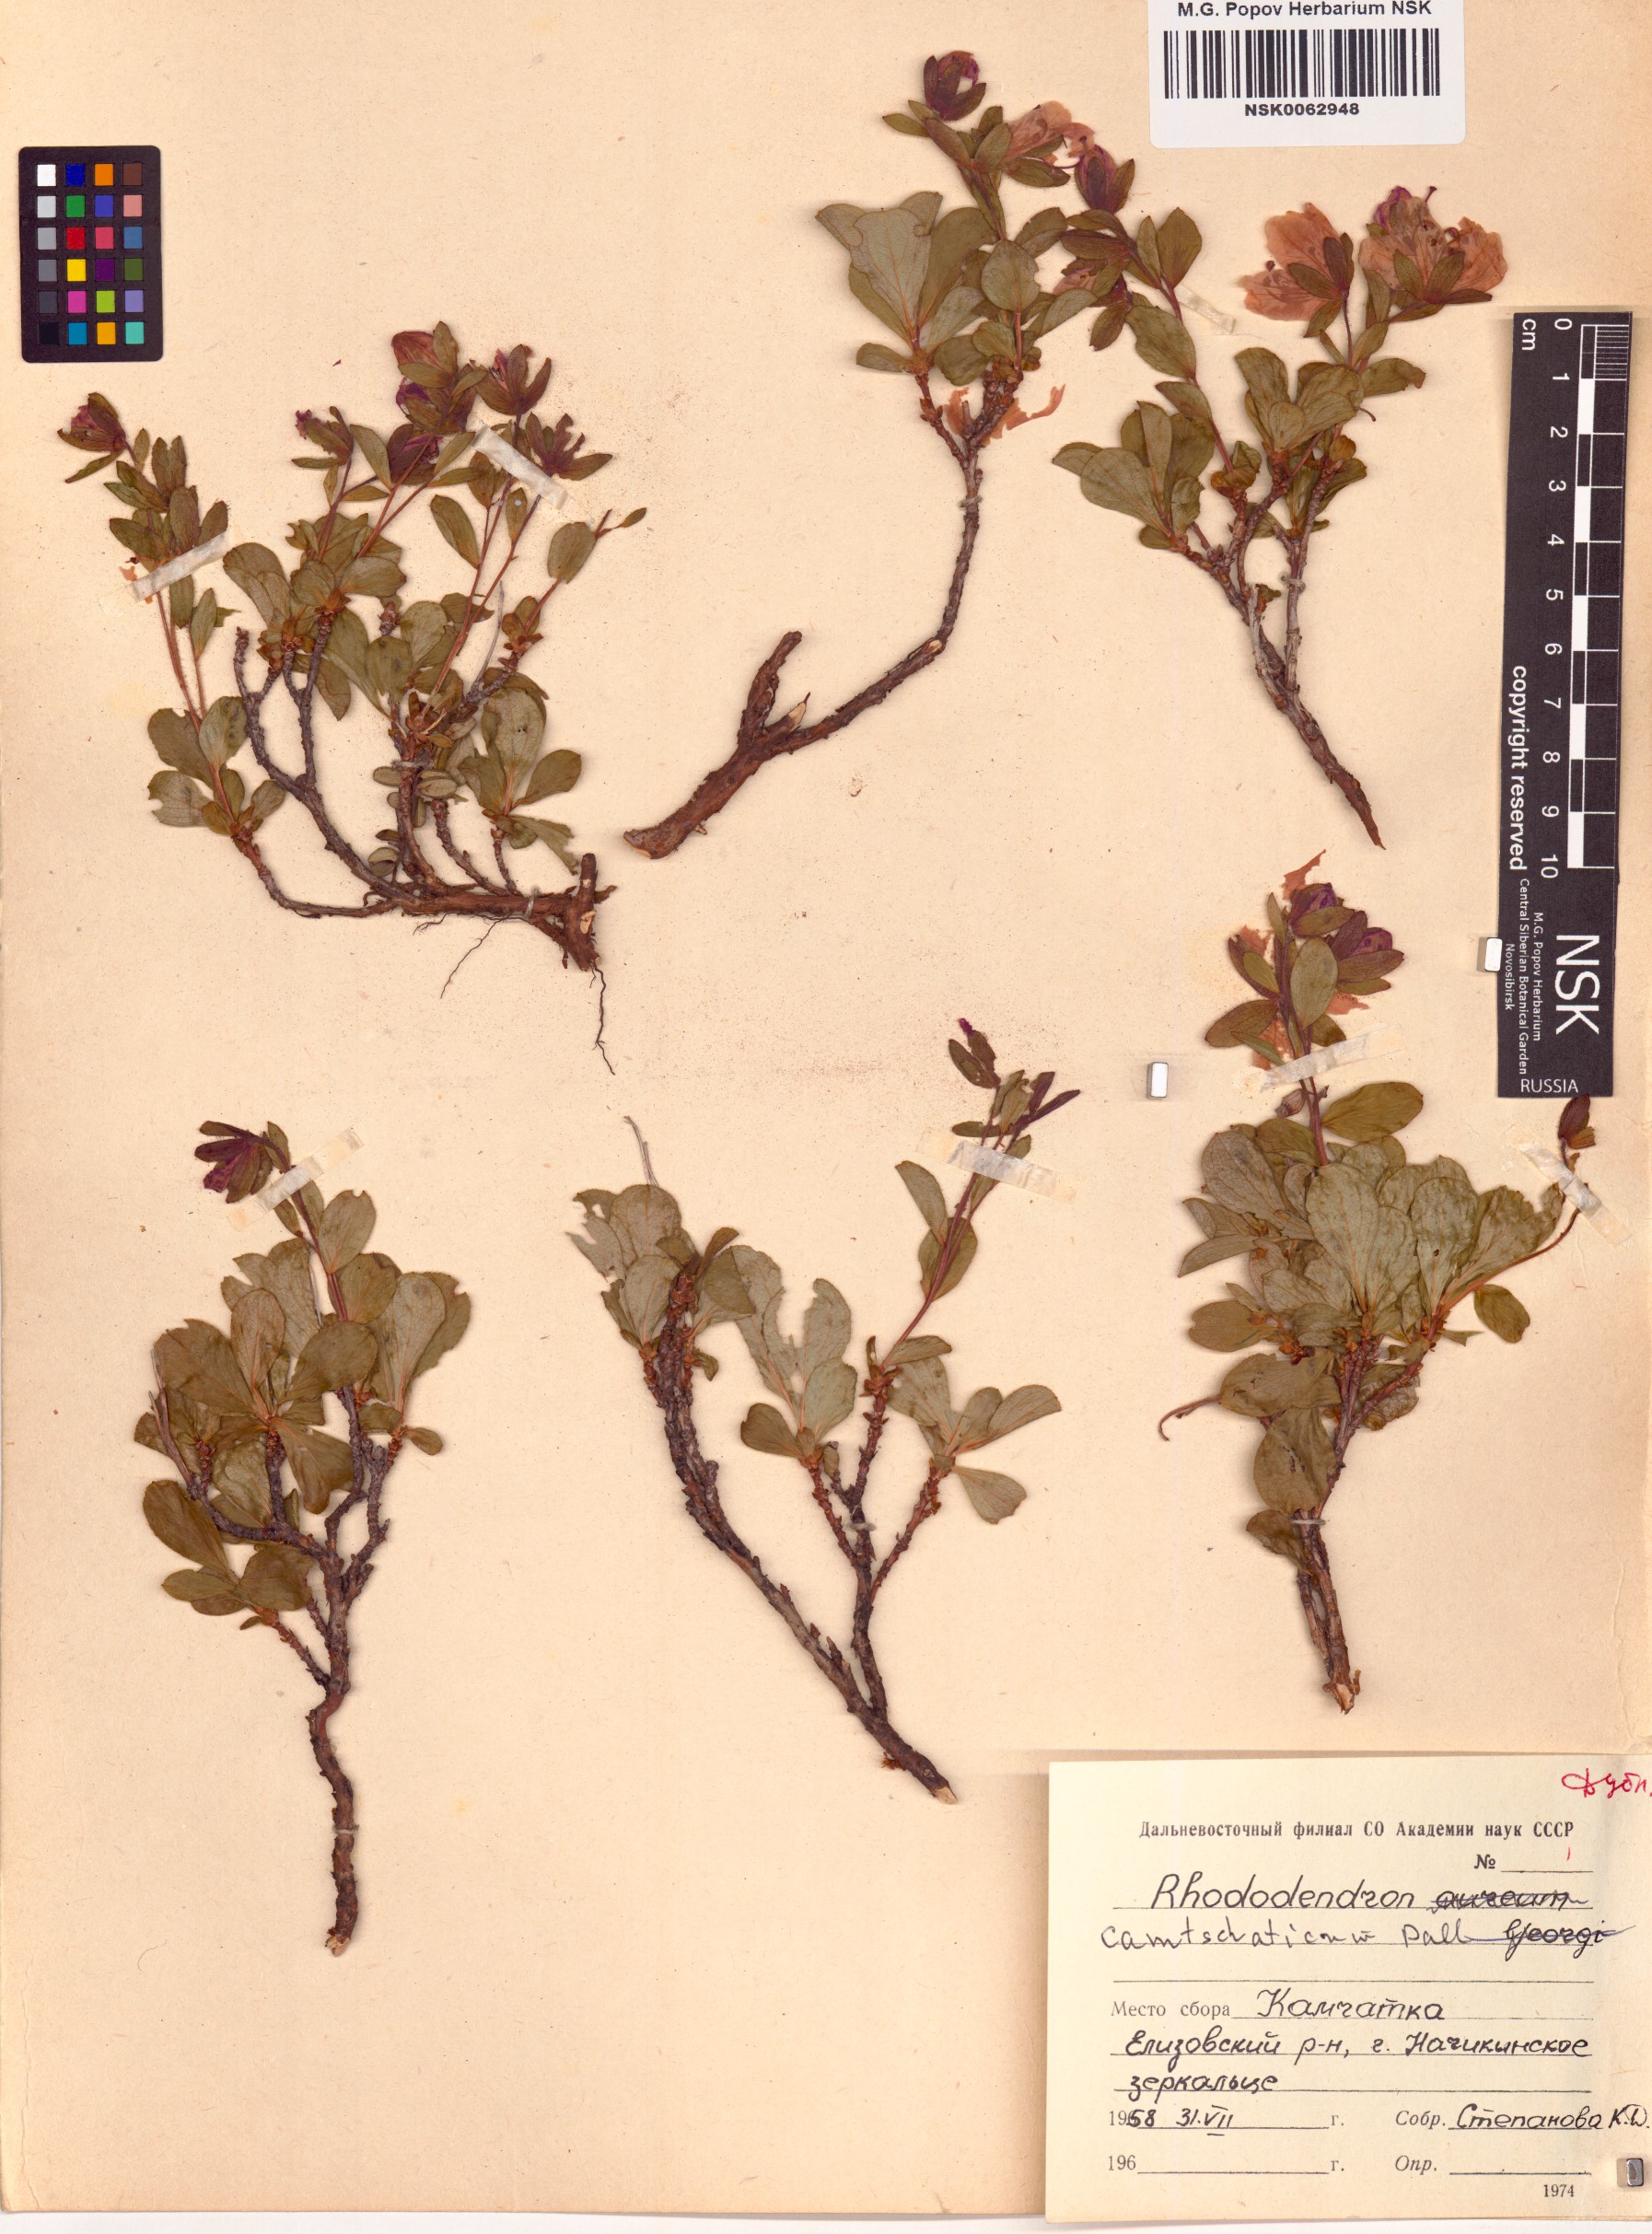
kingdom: Plantae
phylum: Tracheophyta
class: Magnoliopsida
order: Ericales
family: Ericaceae
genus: Rhododendron
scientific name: Rhododendron camtschaticum
